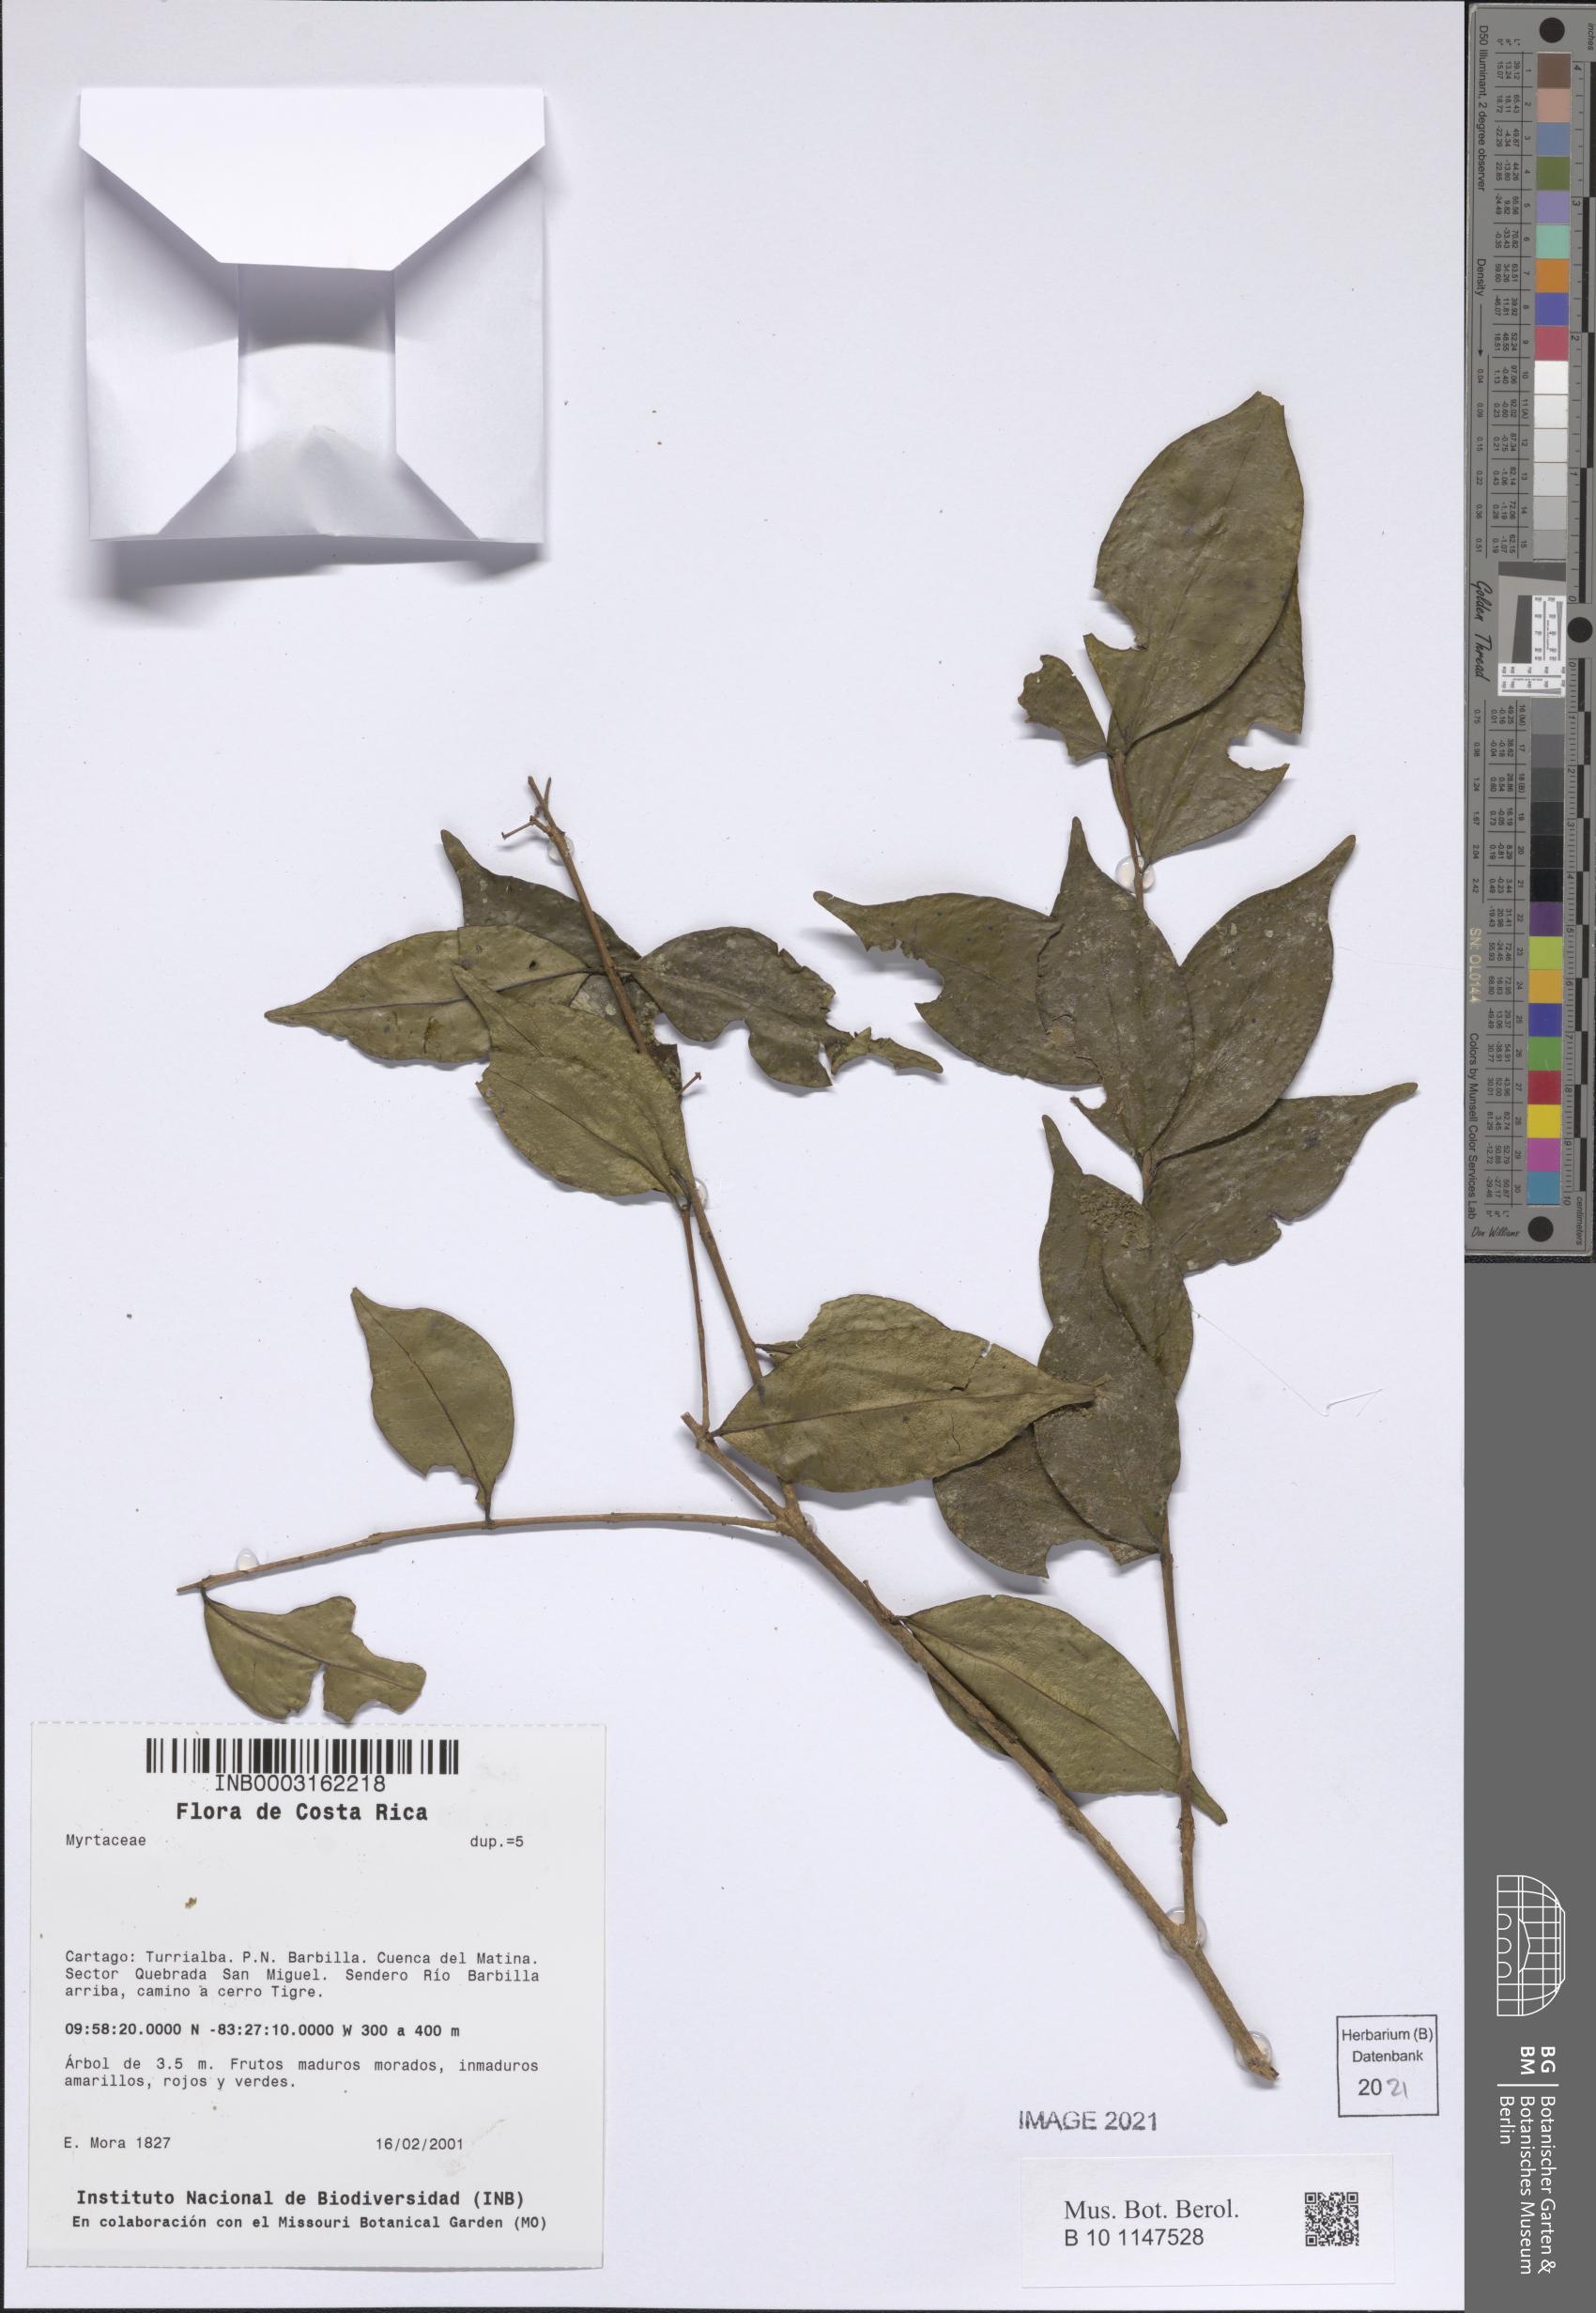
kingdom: Plantae
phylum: Tracheophyta
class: Magnoliopsida
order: Myrtales
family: Myrtaceae
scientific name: Myrtaceae
